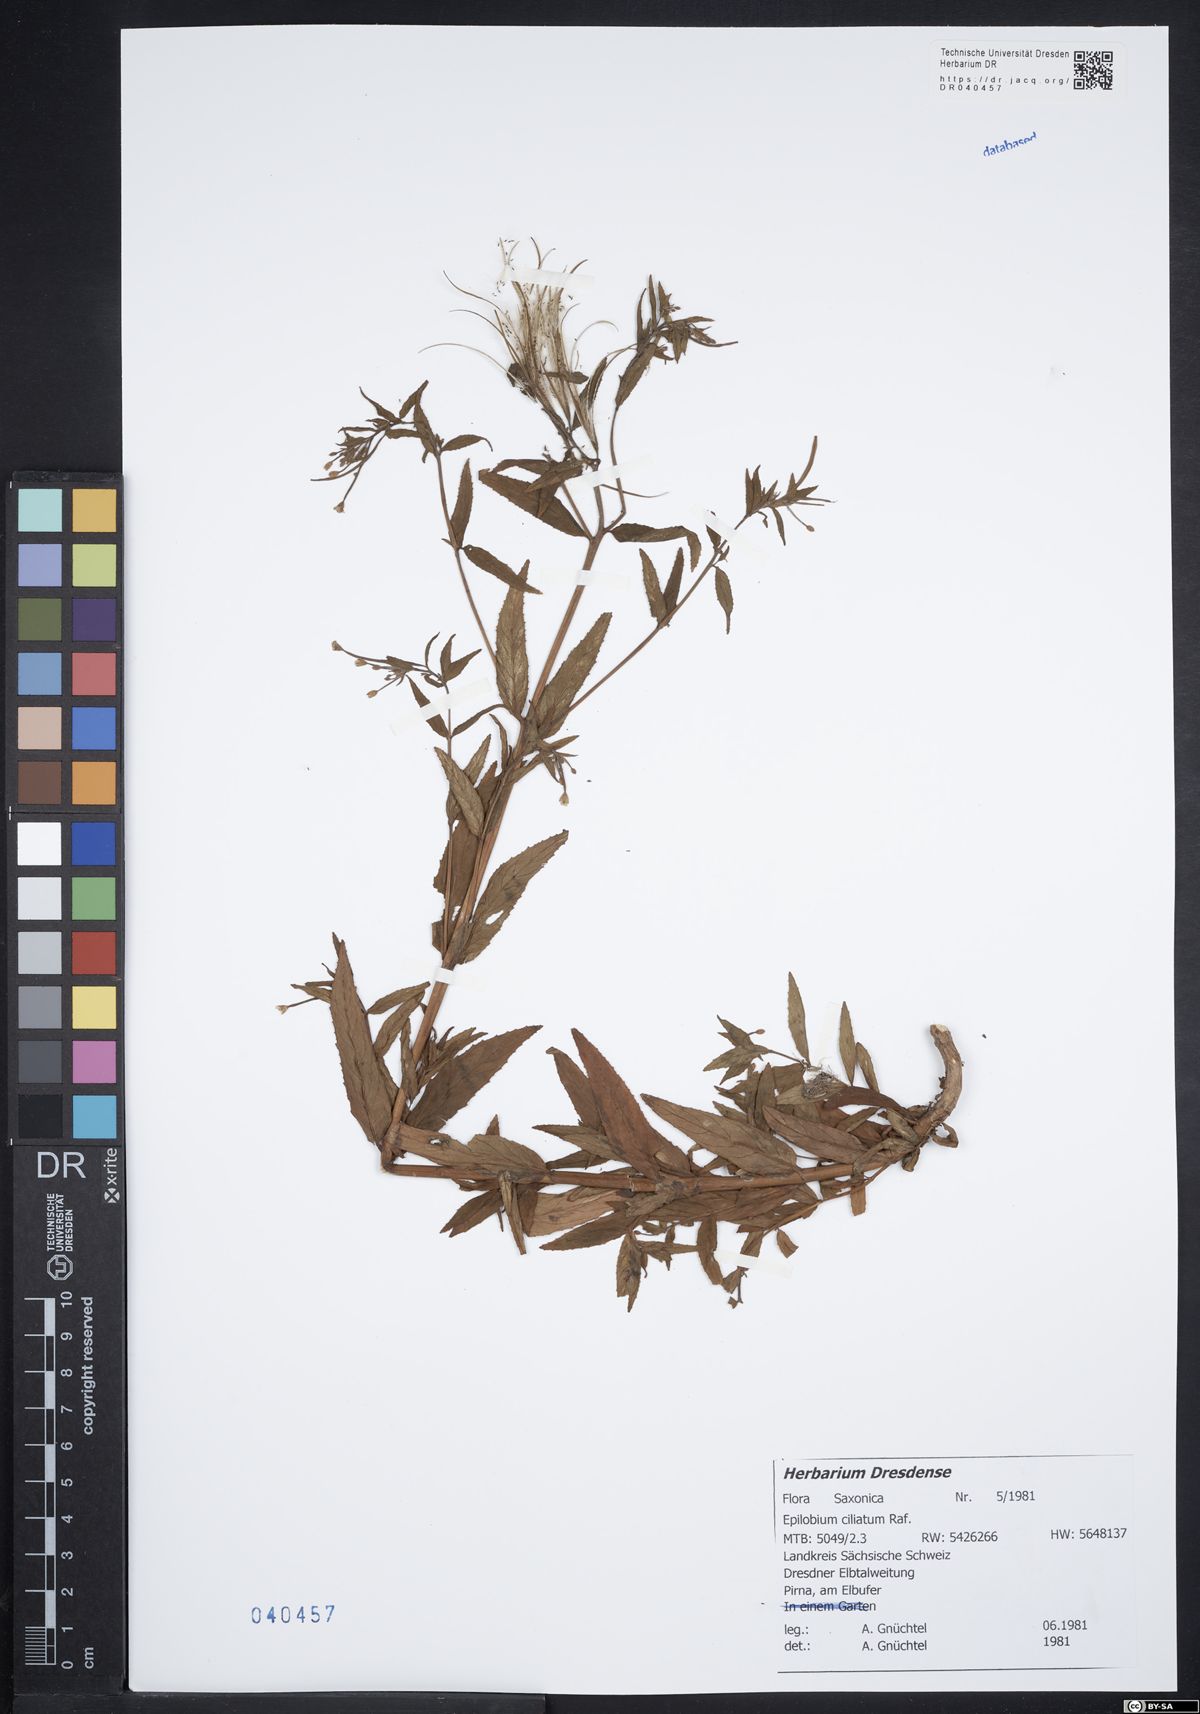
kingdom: Plantae
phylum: Tracheophyta
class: Magnoliopsida
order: Myrtales
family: Onagraceae
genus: Epilobium
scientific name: Epilobium ciliatum
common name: American willowherb
